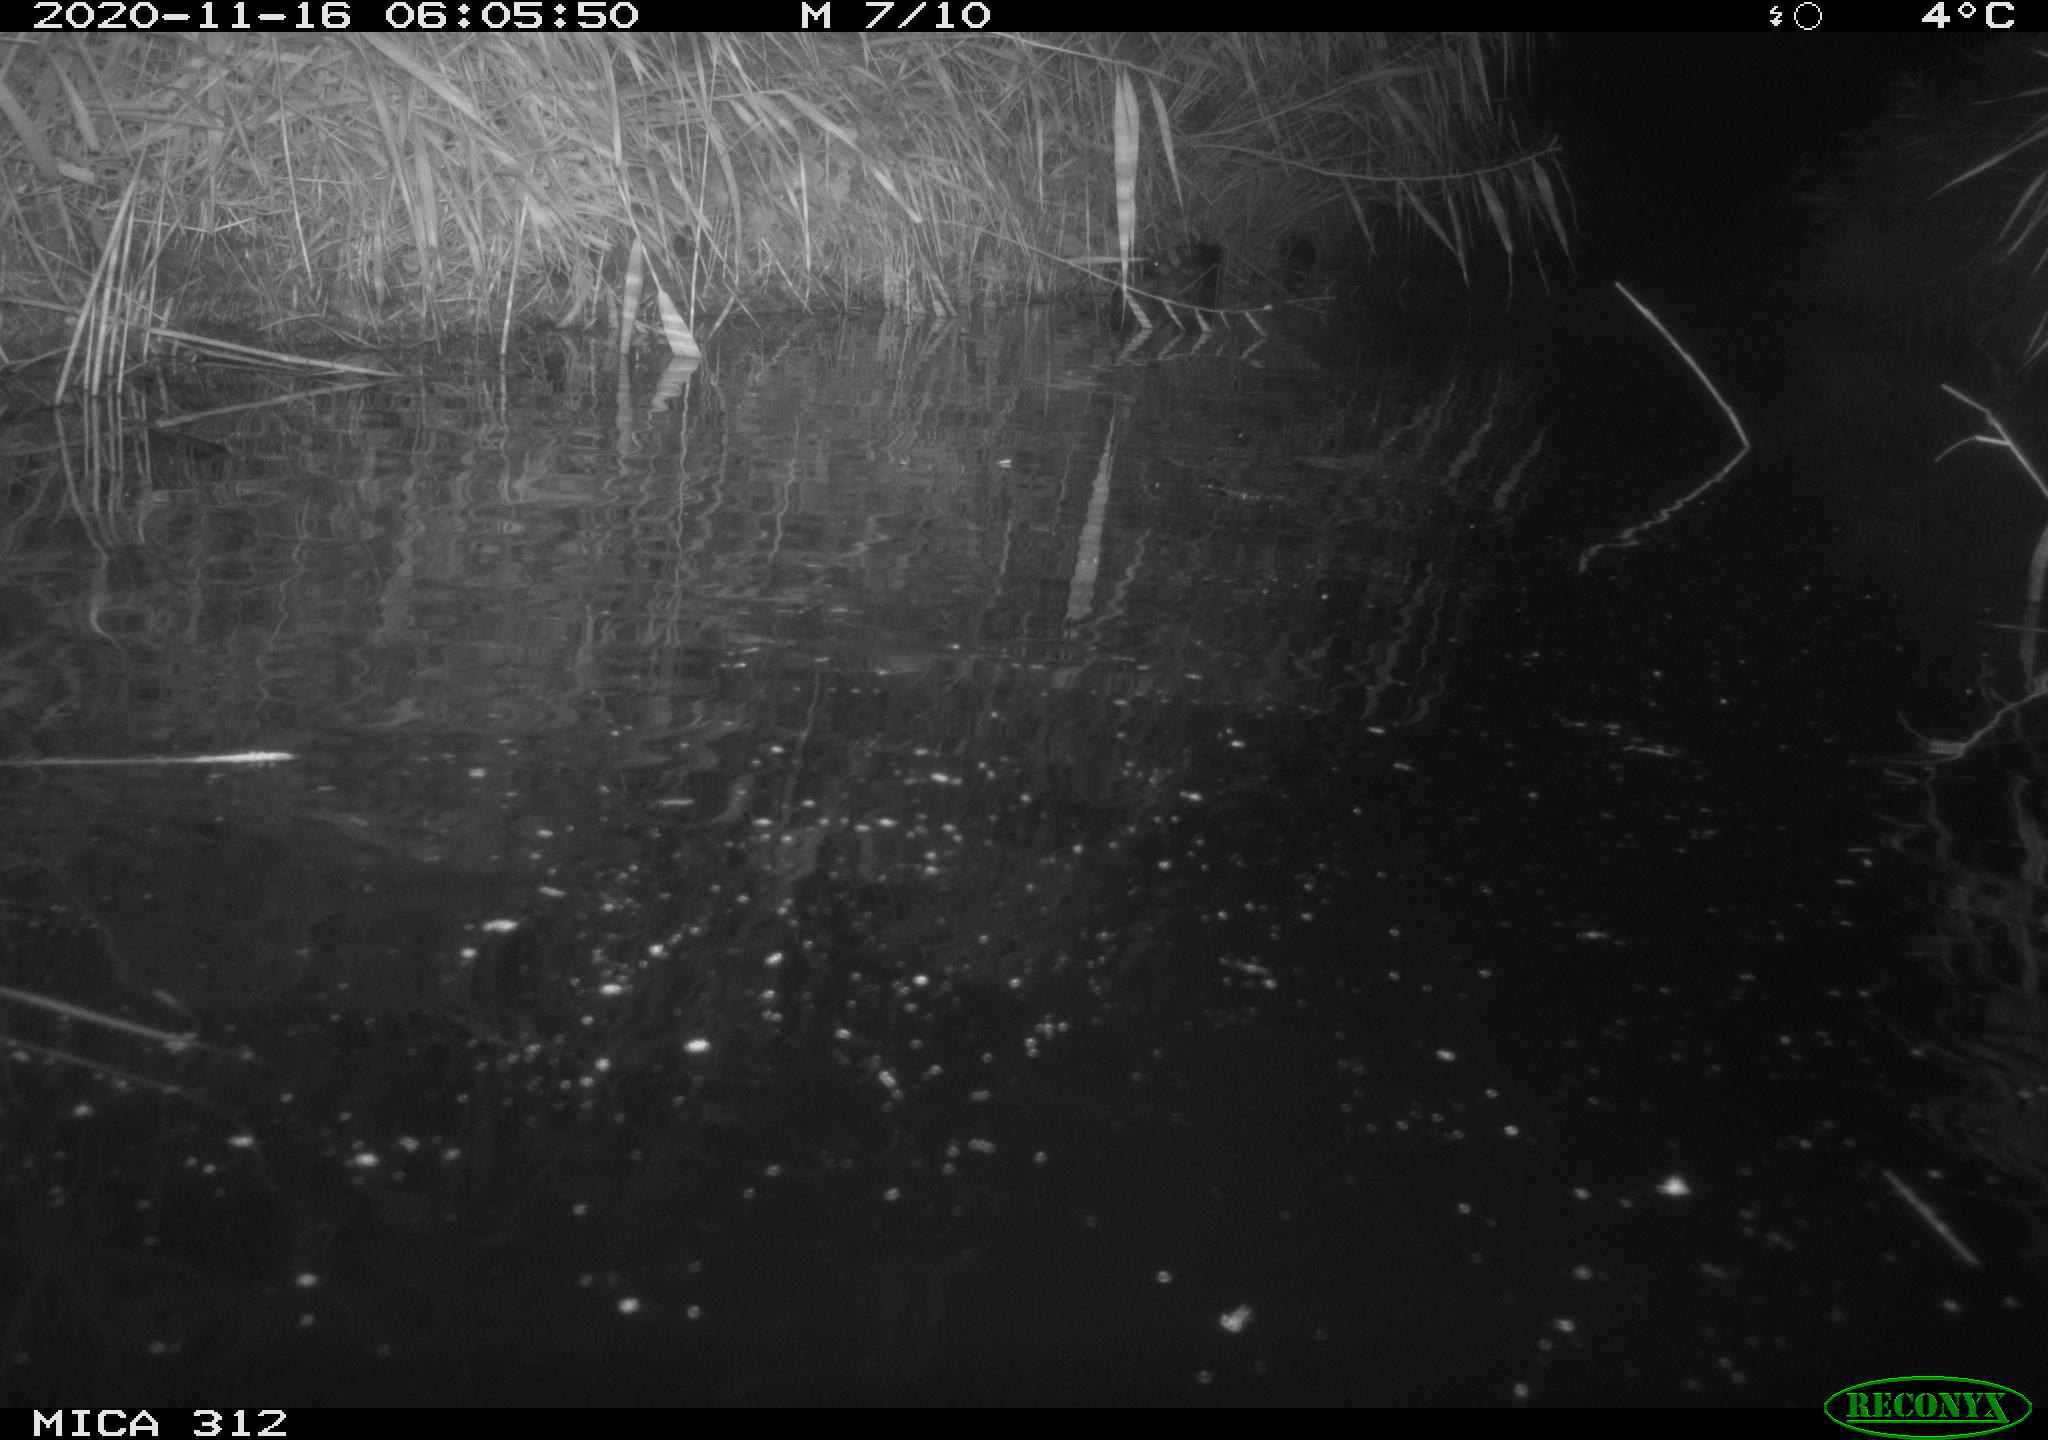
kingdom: Animalia
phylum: Chordata
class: Mammalia
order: Rodentia
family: Muridae
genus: Rattus
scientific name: Rattus norvegicus
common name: Brown rat
